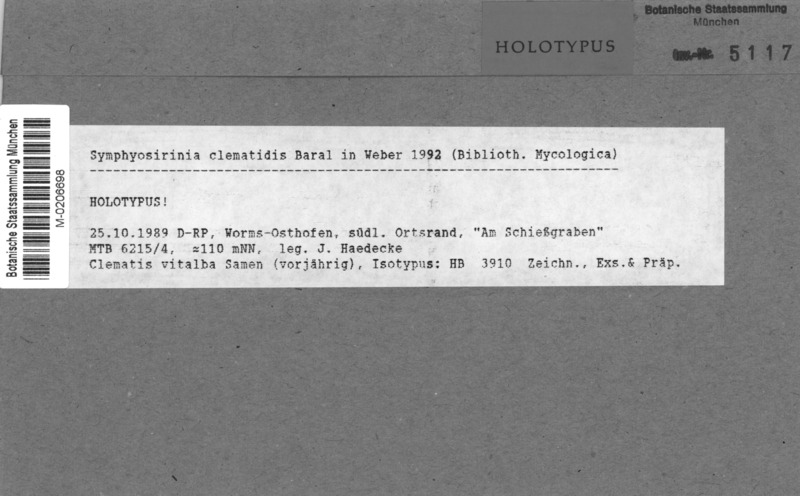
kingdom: Fungi
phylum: Ascomycota
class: Leotiomycetes
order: Helotiales
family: Helotiaceae
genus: Symphyosirinia
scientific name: Symphyosirinia clematidis
